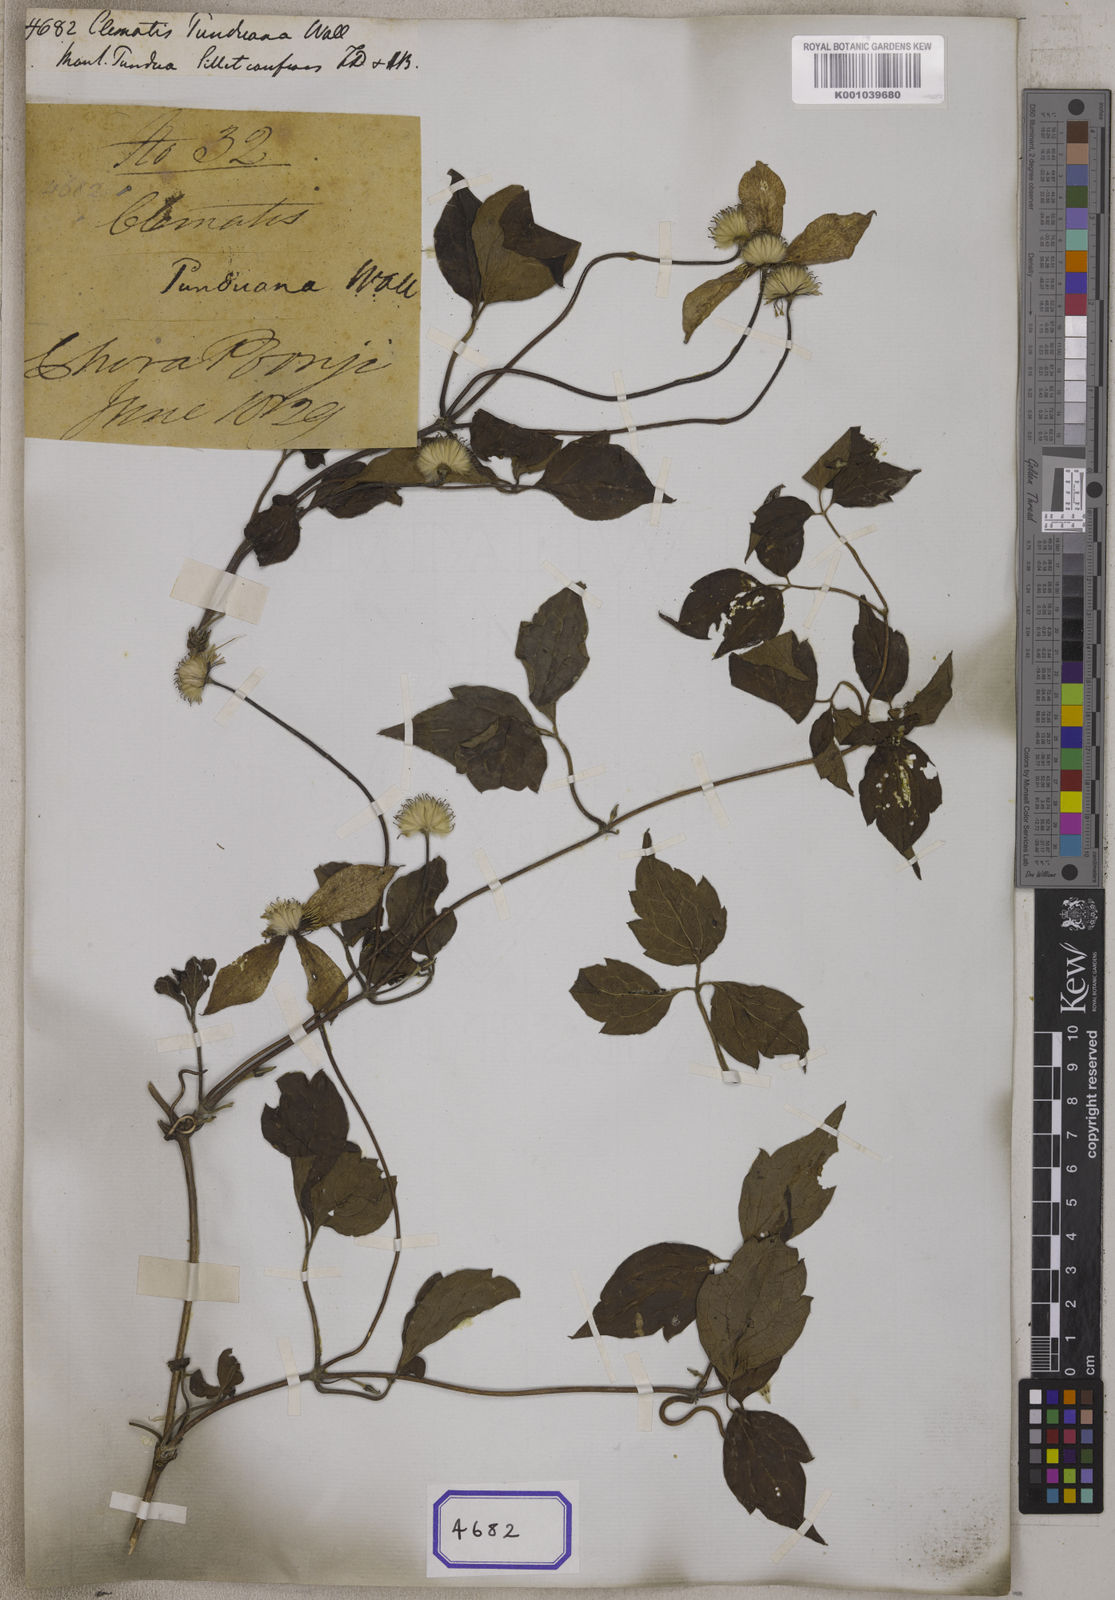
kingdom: Plantae
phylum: Tracheophyta
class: Magnoliopsida
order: Ranunculales
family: Ranunculaceae
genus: Clematis
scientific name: Clematis montana
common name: Himalayan clematis
